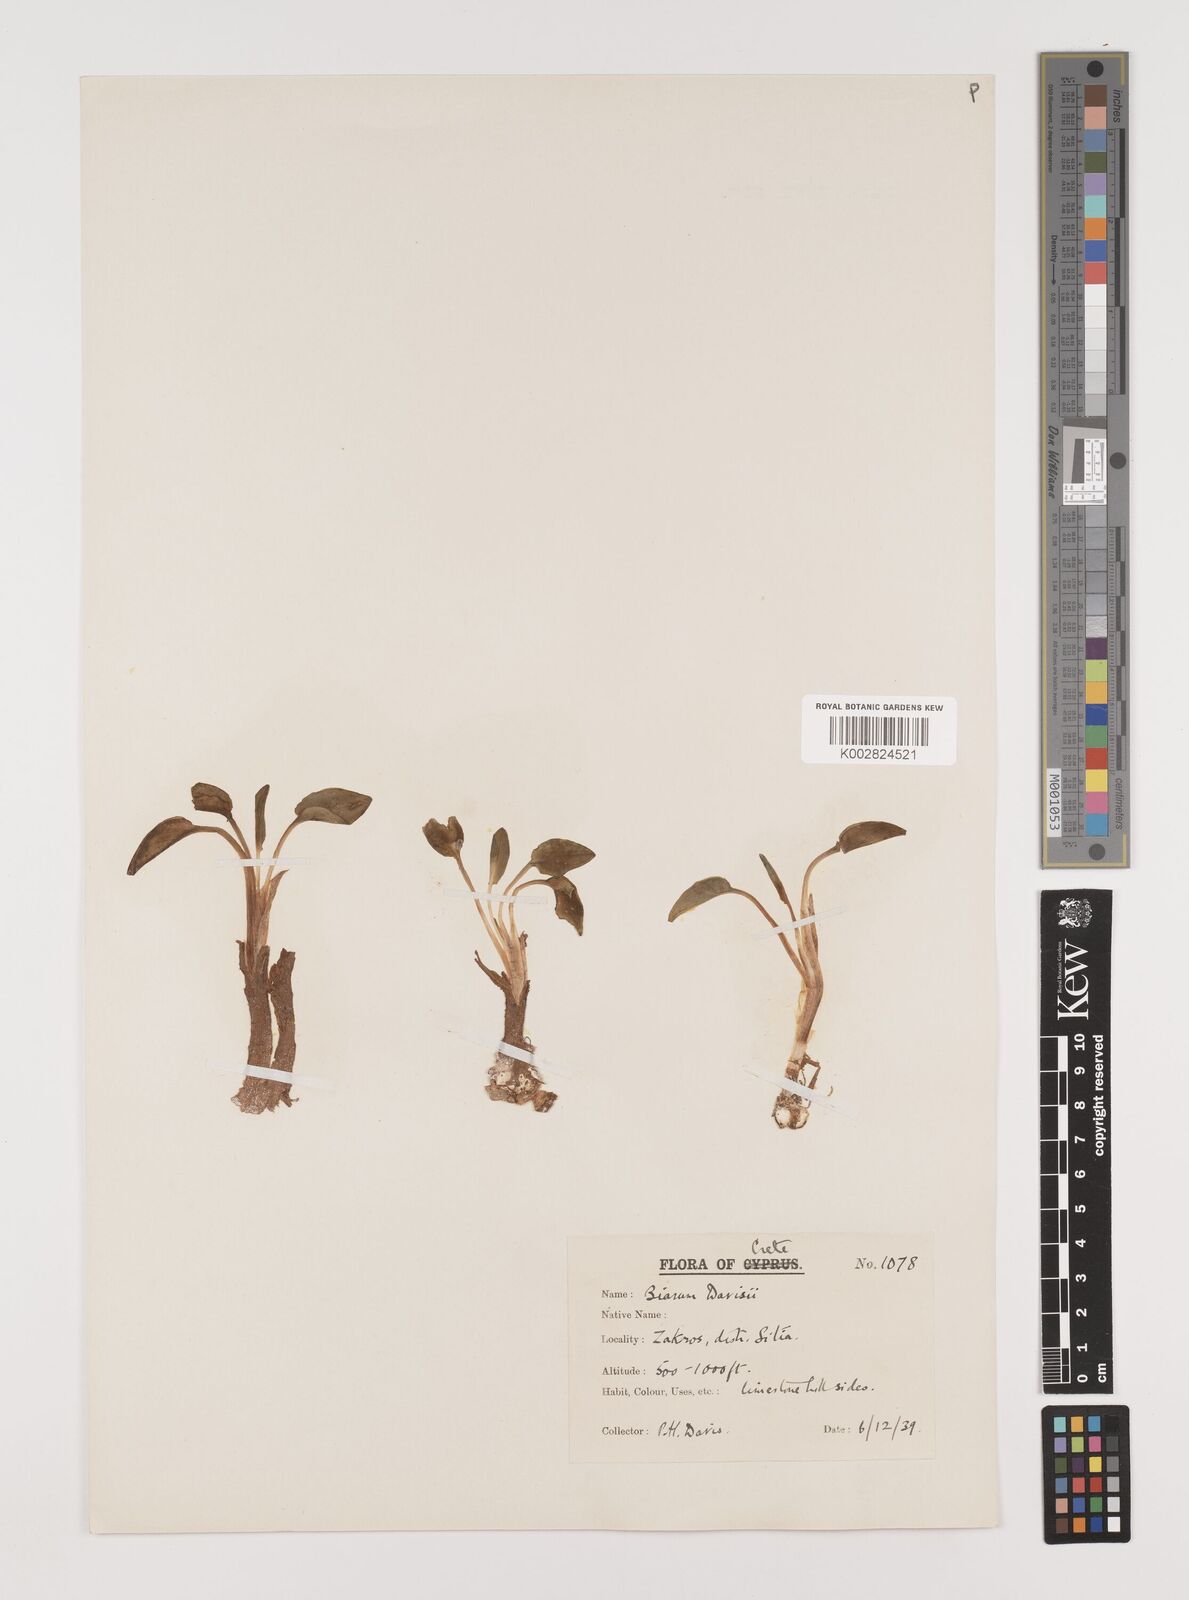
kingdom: Plantae
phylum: Tracheophyta
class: Liliopsida
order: Alismatales
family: Araceae
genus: Biarum
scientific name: Biarum davisii
